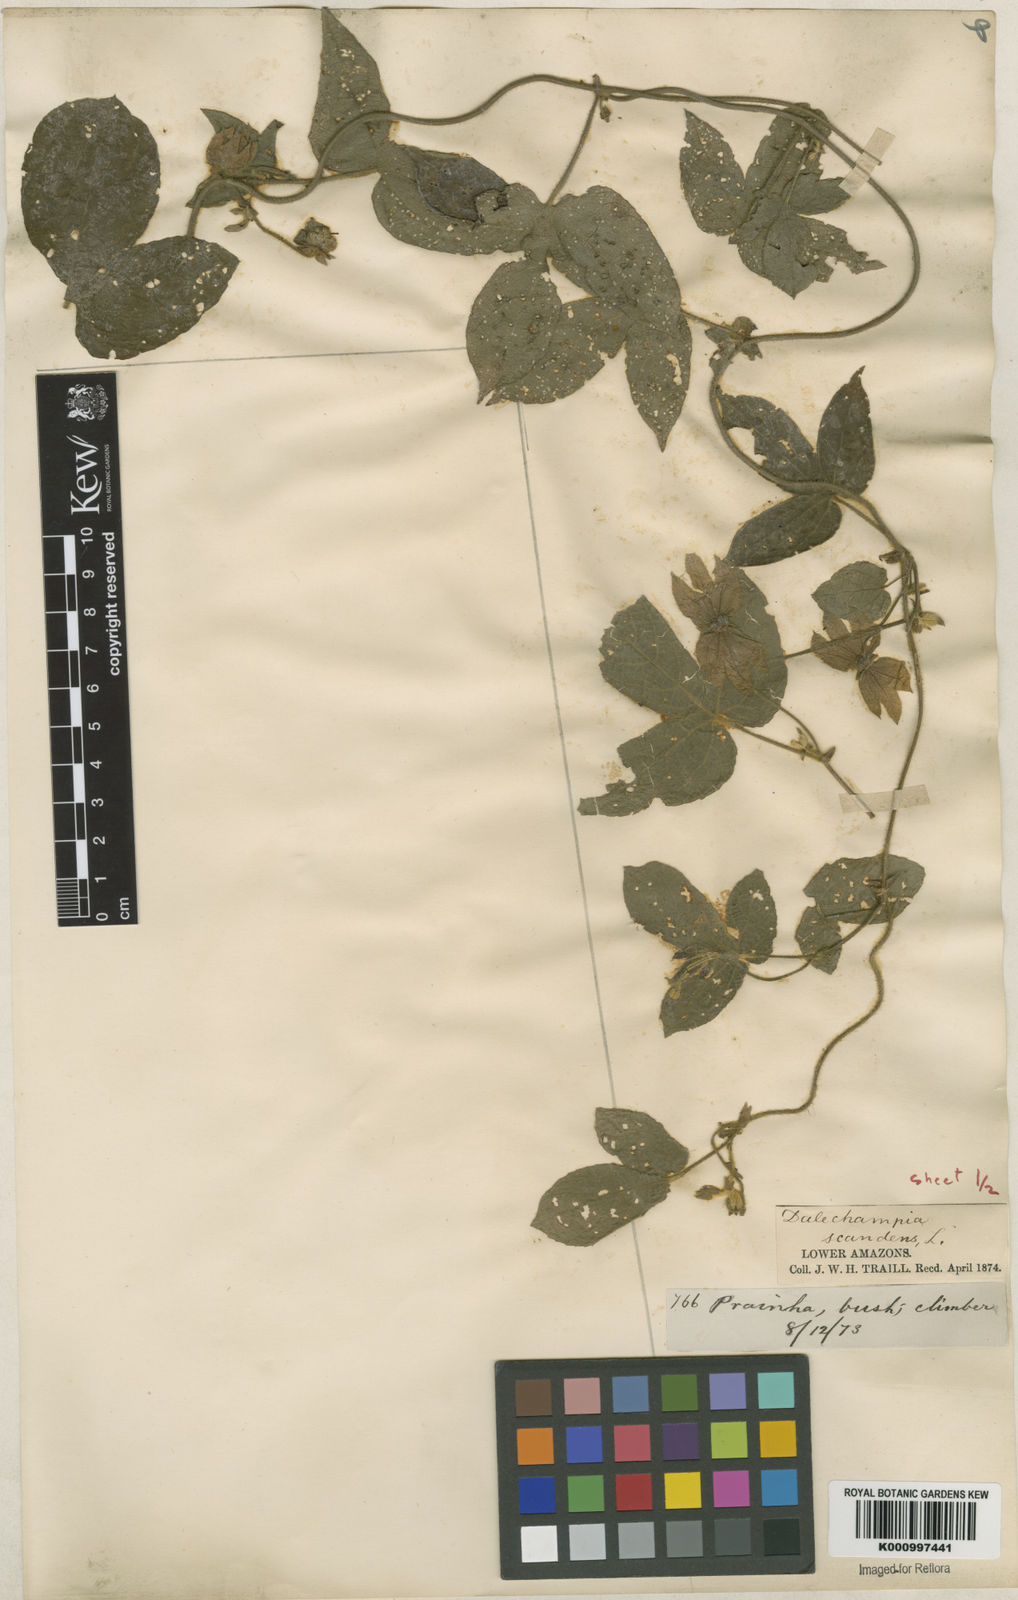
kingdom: Plantae
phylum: Tracheophyta
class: Magnoliopsida
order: Malpighiales
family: Euphorbiaceae
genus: Dalechampia
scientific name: Dalechampia scandens
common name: Spurgecreeper
